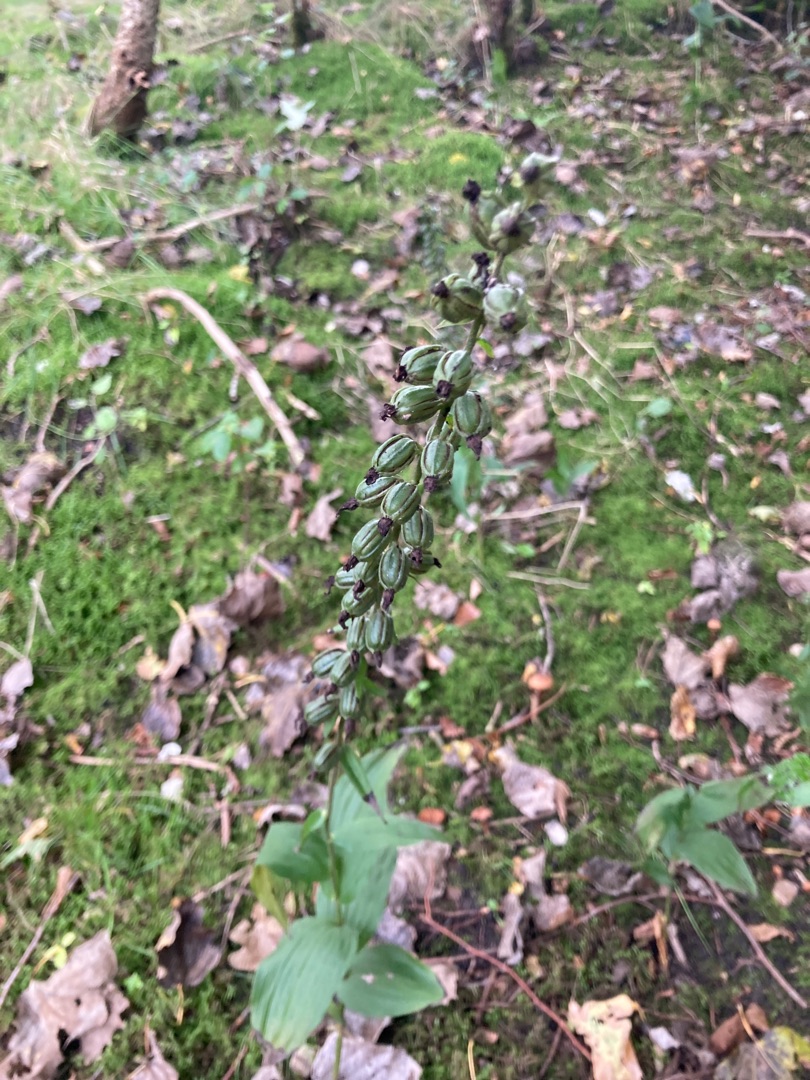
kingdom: Plantae
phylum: Tracheophyta
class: Liliopsida
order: Asparagales
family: Orchidaceae
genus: Epipactis
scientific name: Epipactis helleborine
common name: Skov-hullæbe
